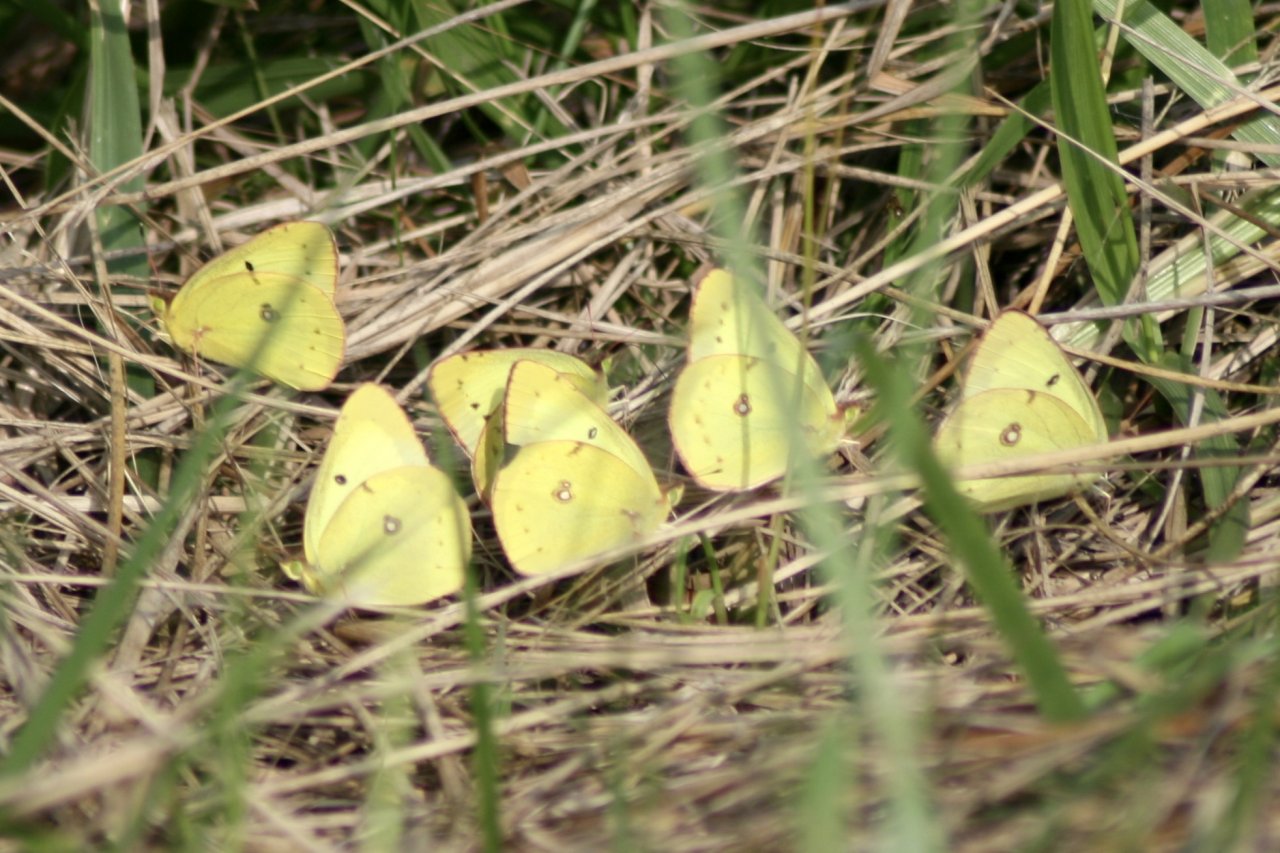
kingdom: Animalia
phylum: Arthropoda
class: Insecta
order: Lepidoptera
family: Pieridae
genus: Colias
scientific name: Colias philodice
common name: Clouded Sulphur
